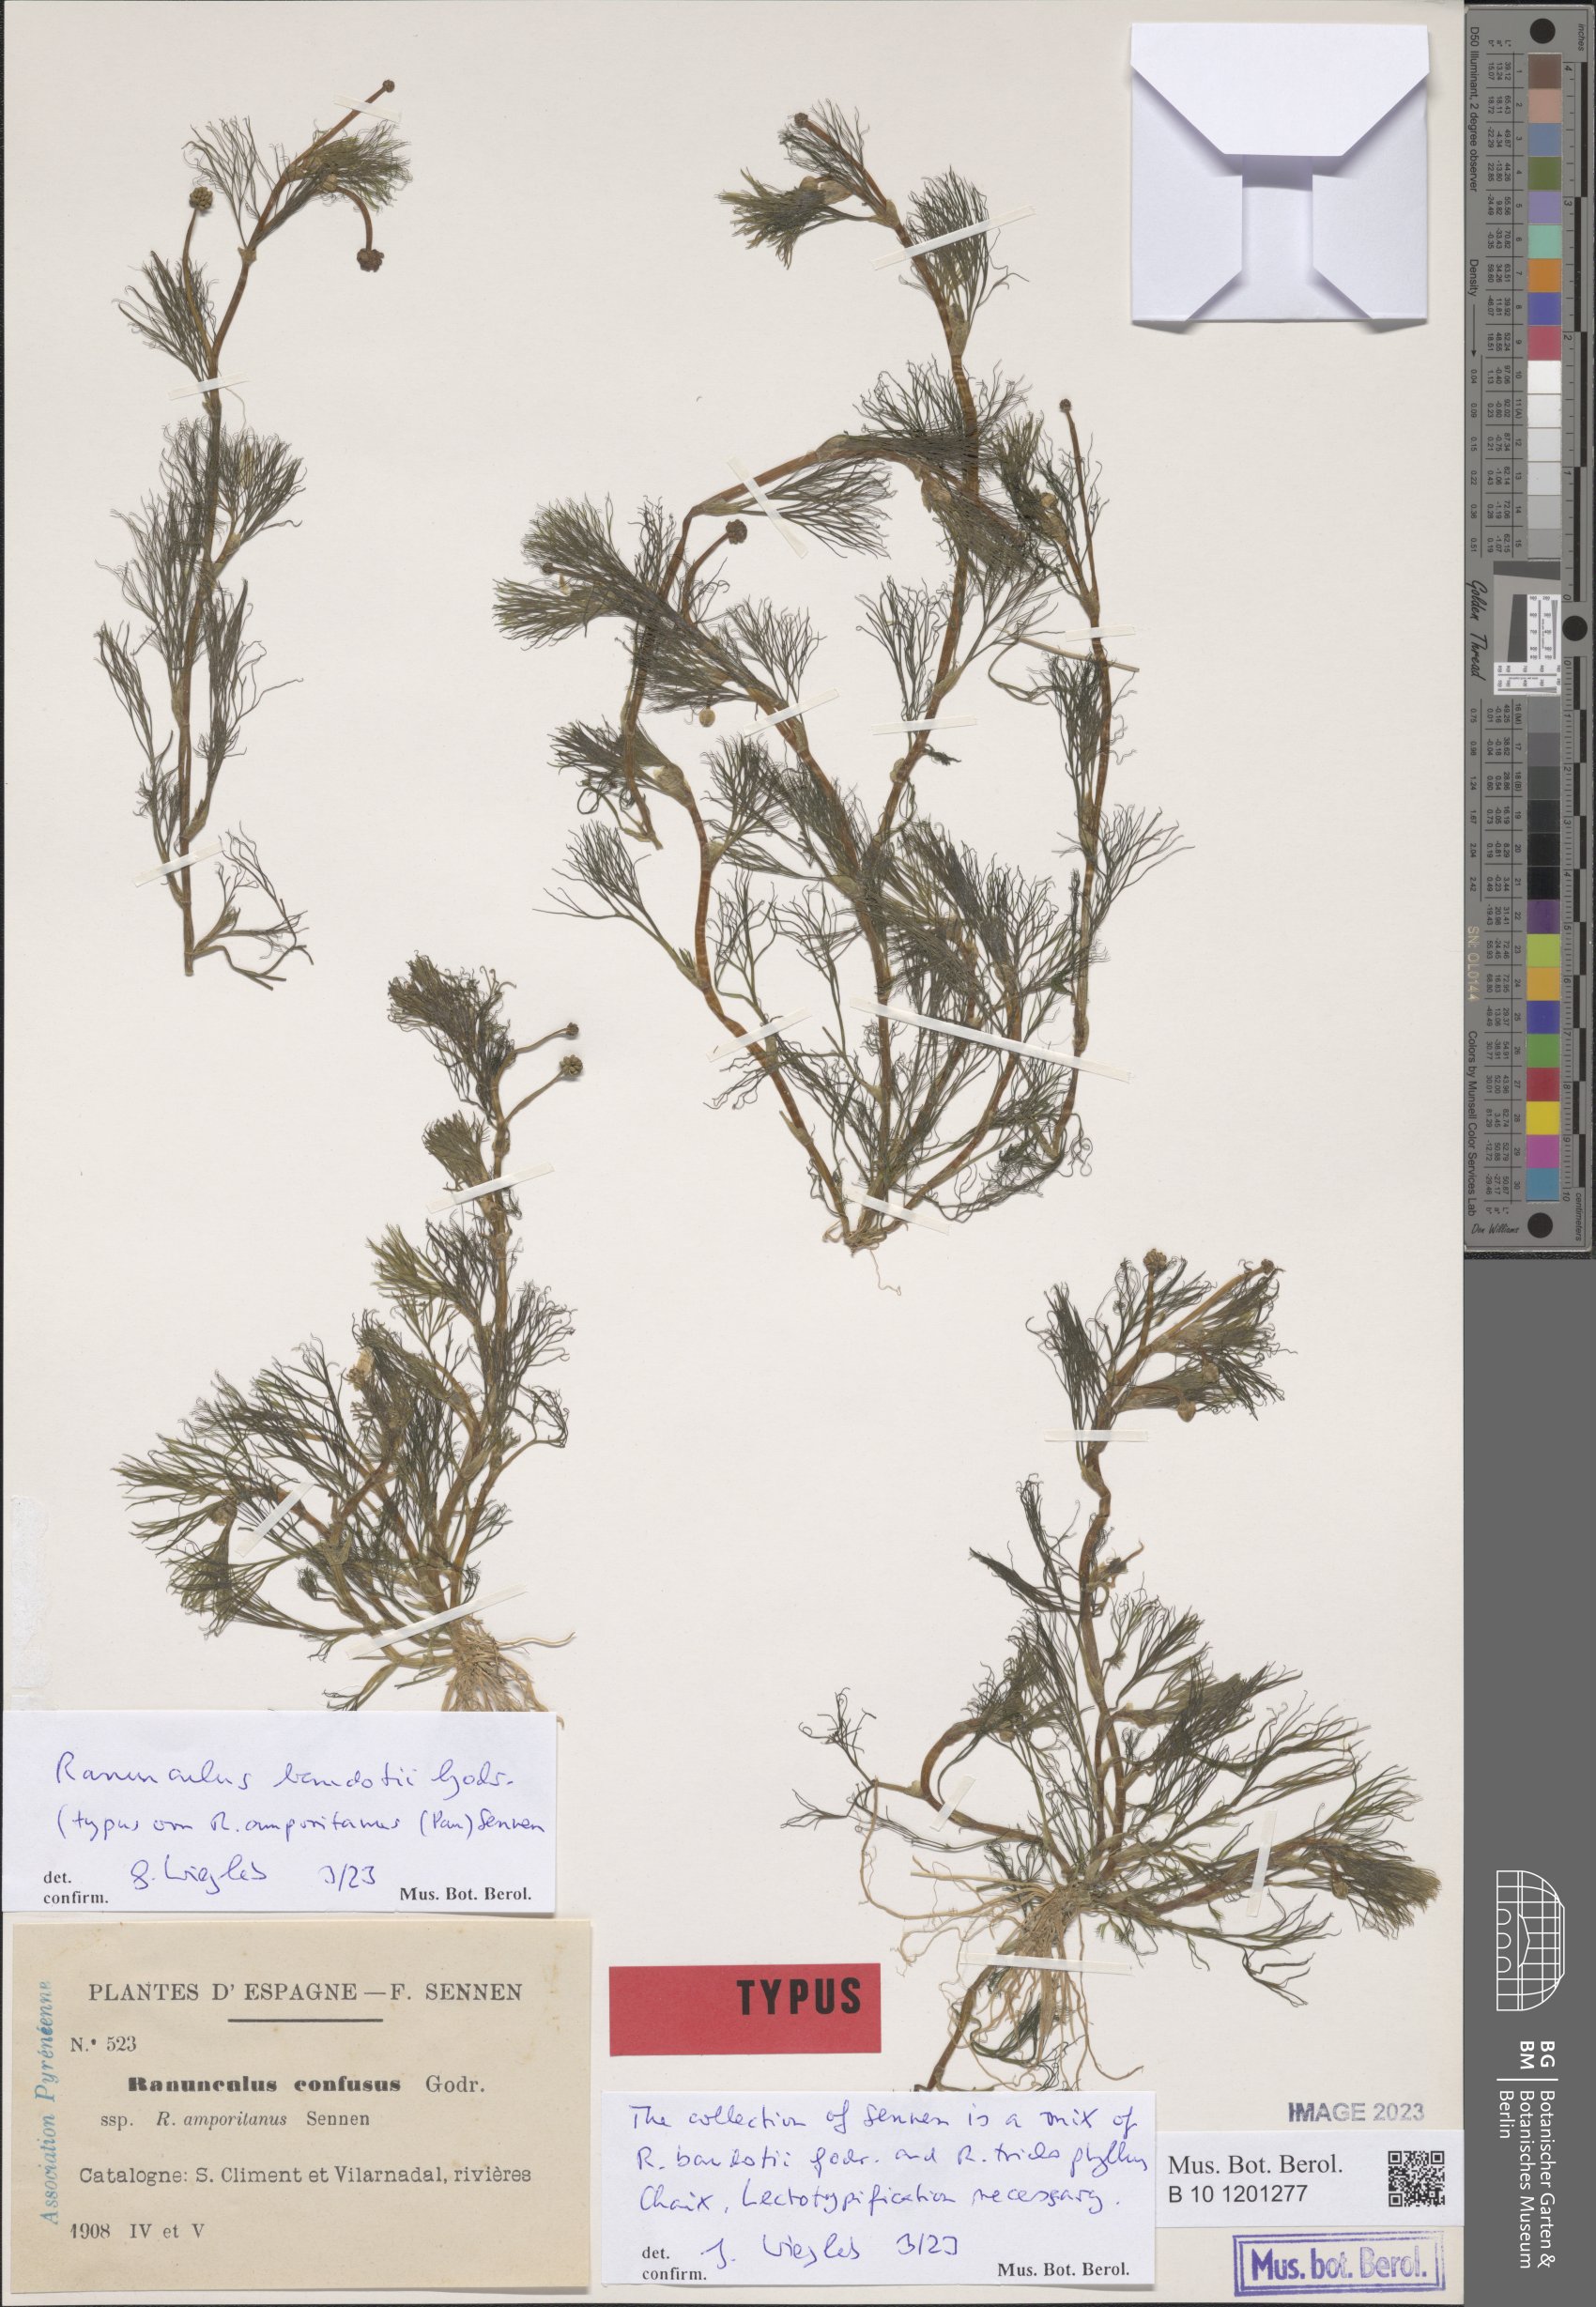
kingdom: Plantae
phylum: Tracheophyta
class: Magnoliopsida
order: Ranunculales
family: Ranunculaceae
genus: Ranunculus
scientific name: Ranunculus peltatus
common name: Pond water-crowfoot
